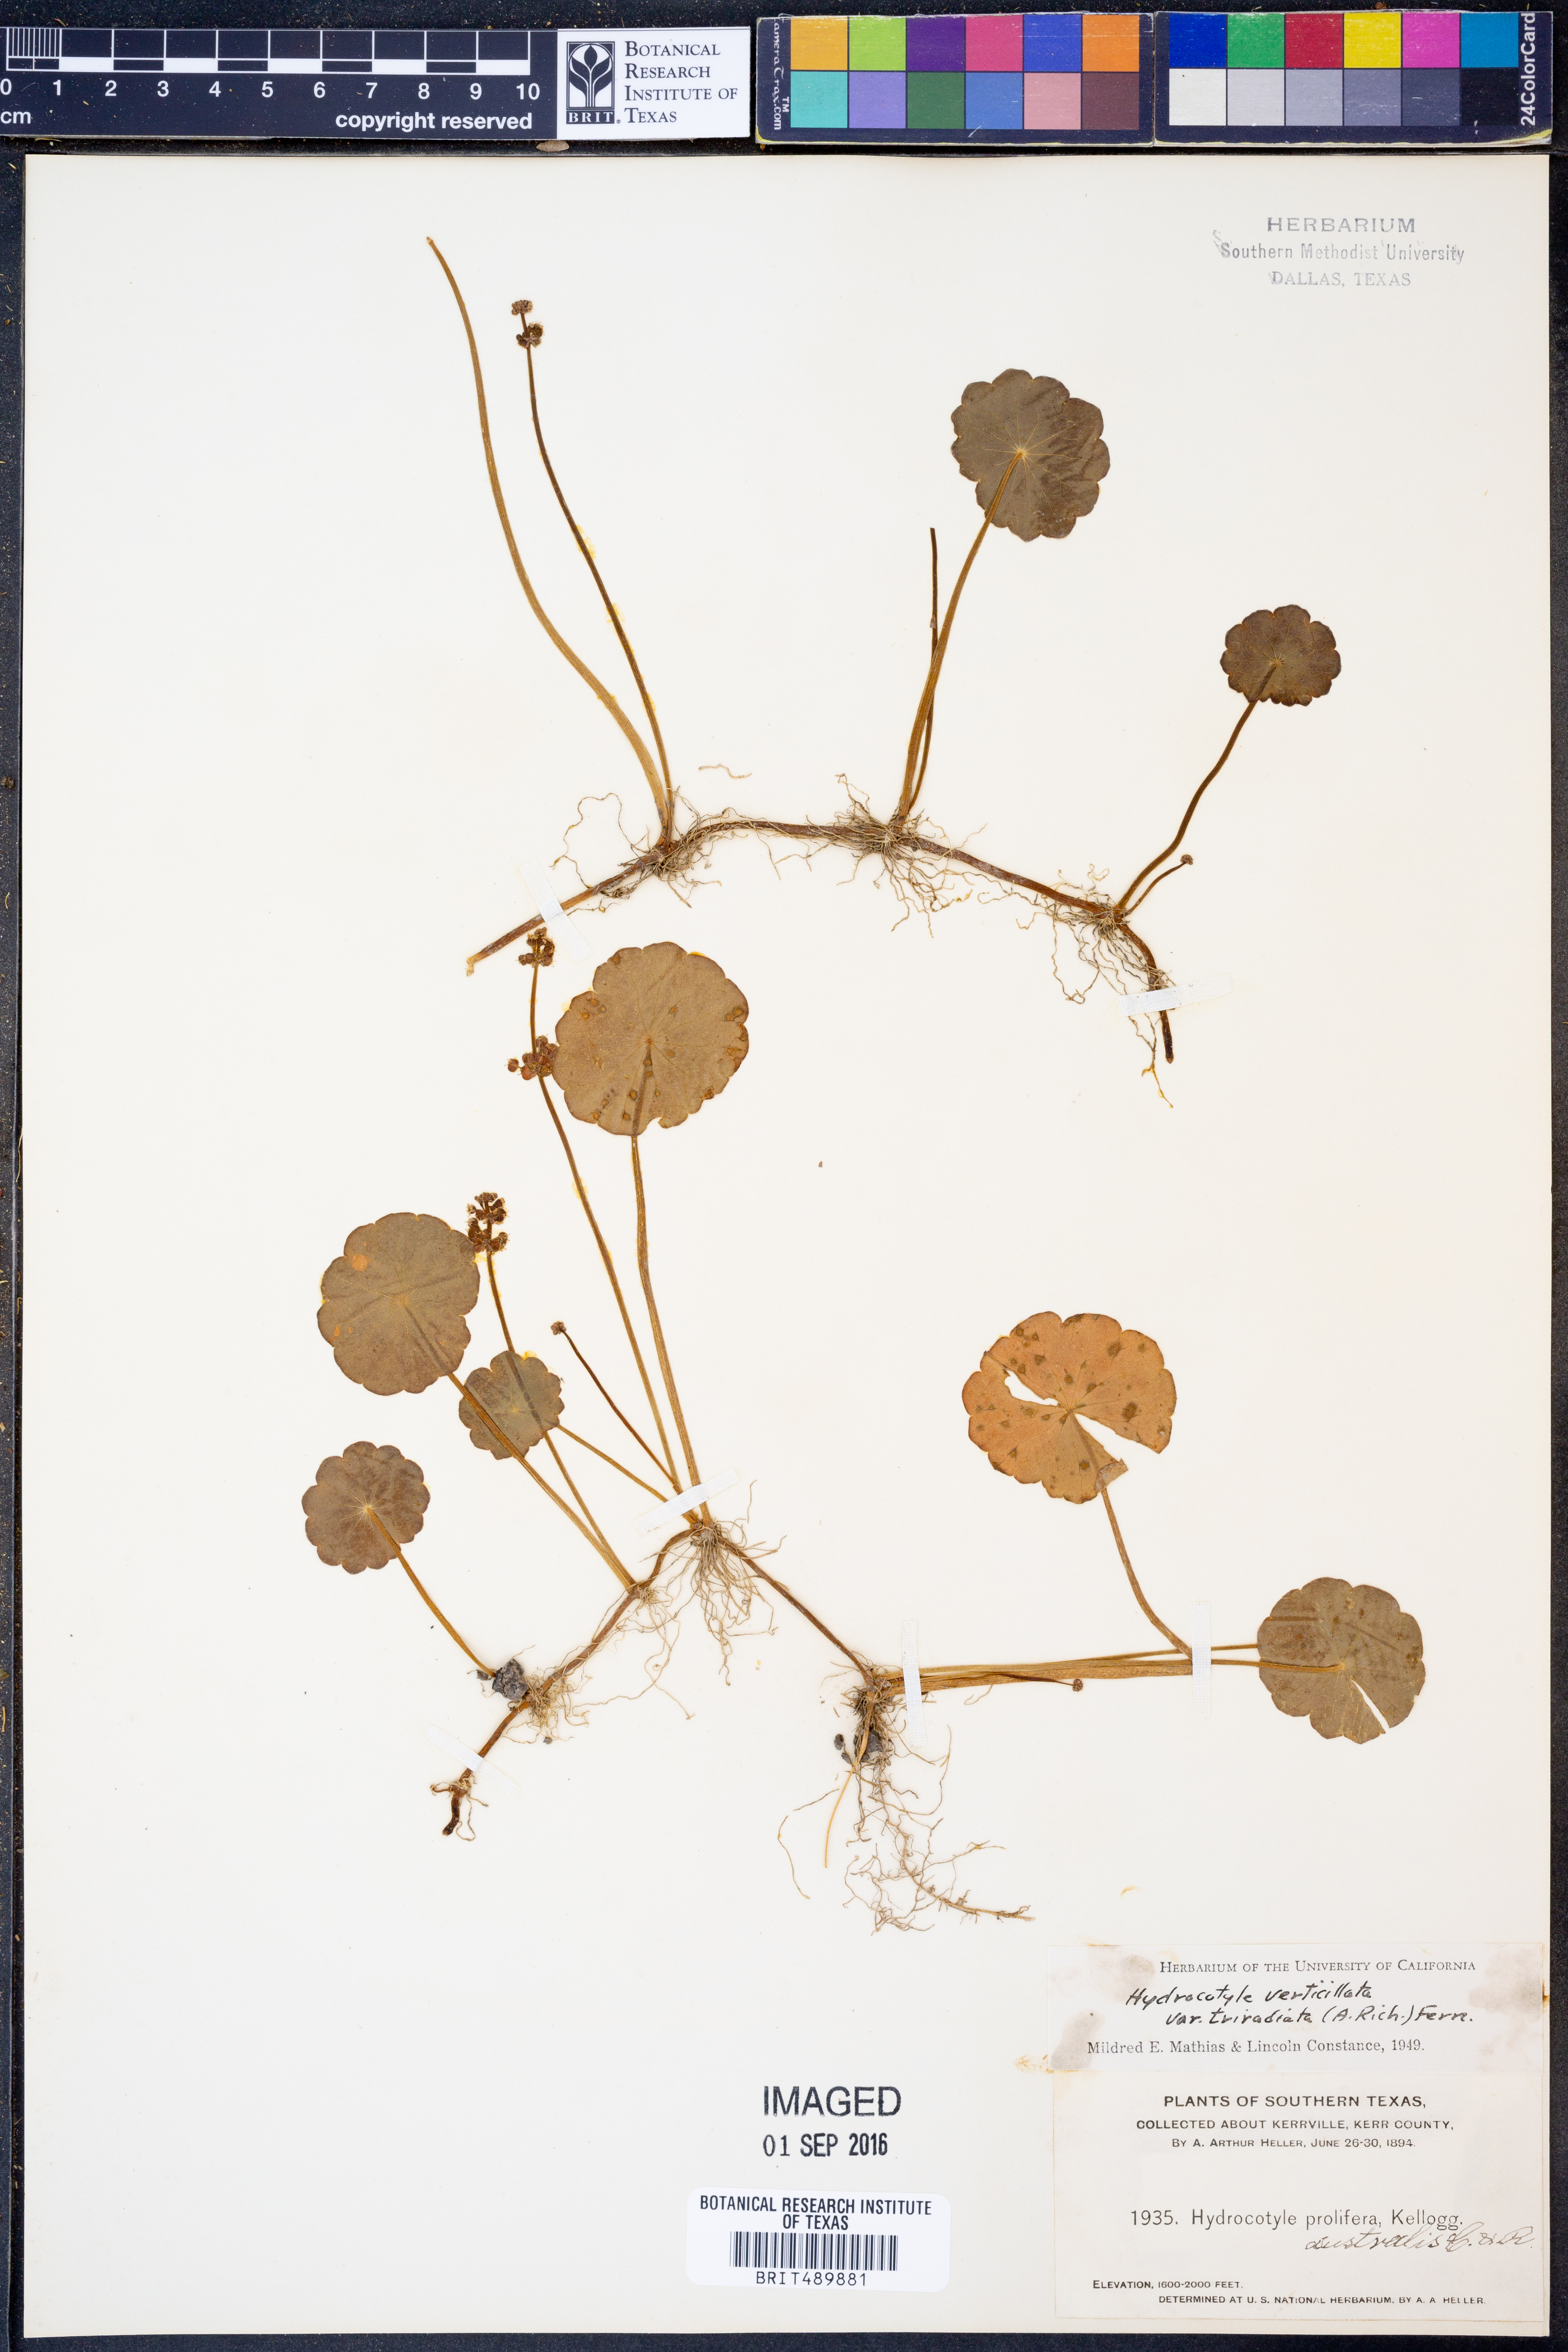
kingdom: Plantae
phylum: Tracheophyta
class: Magnoliopsida
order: Apiales
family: Araliaceae
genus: Hydrocotyle
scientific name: Hydrocotyle bonariensis
